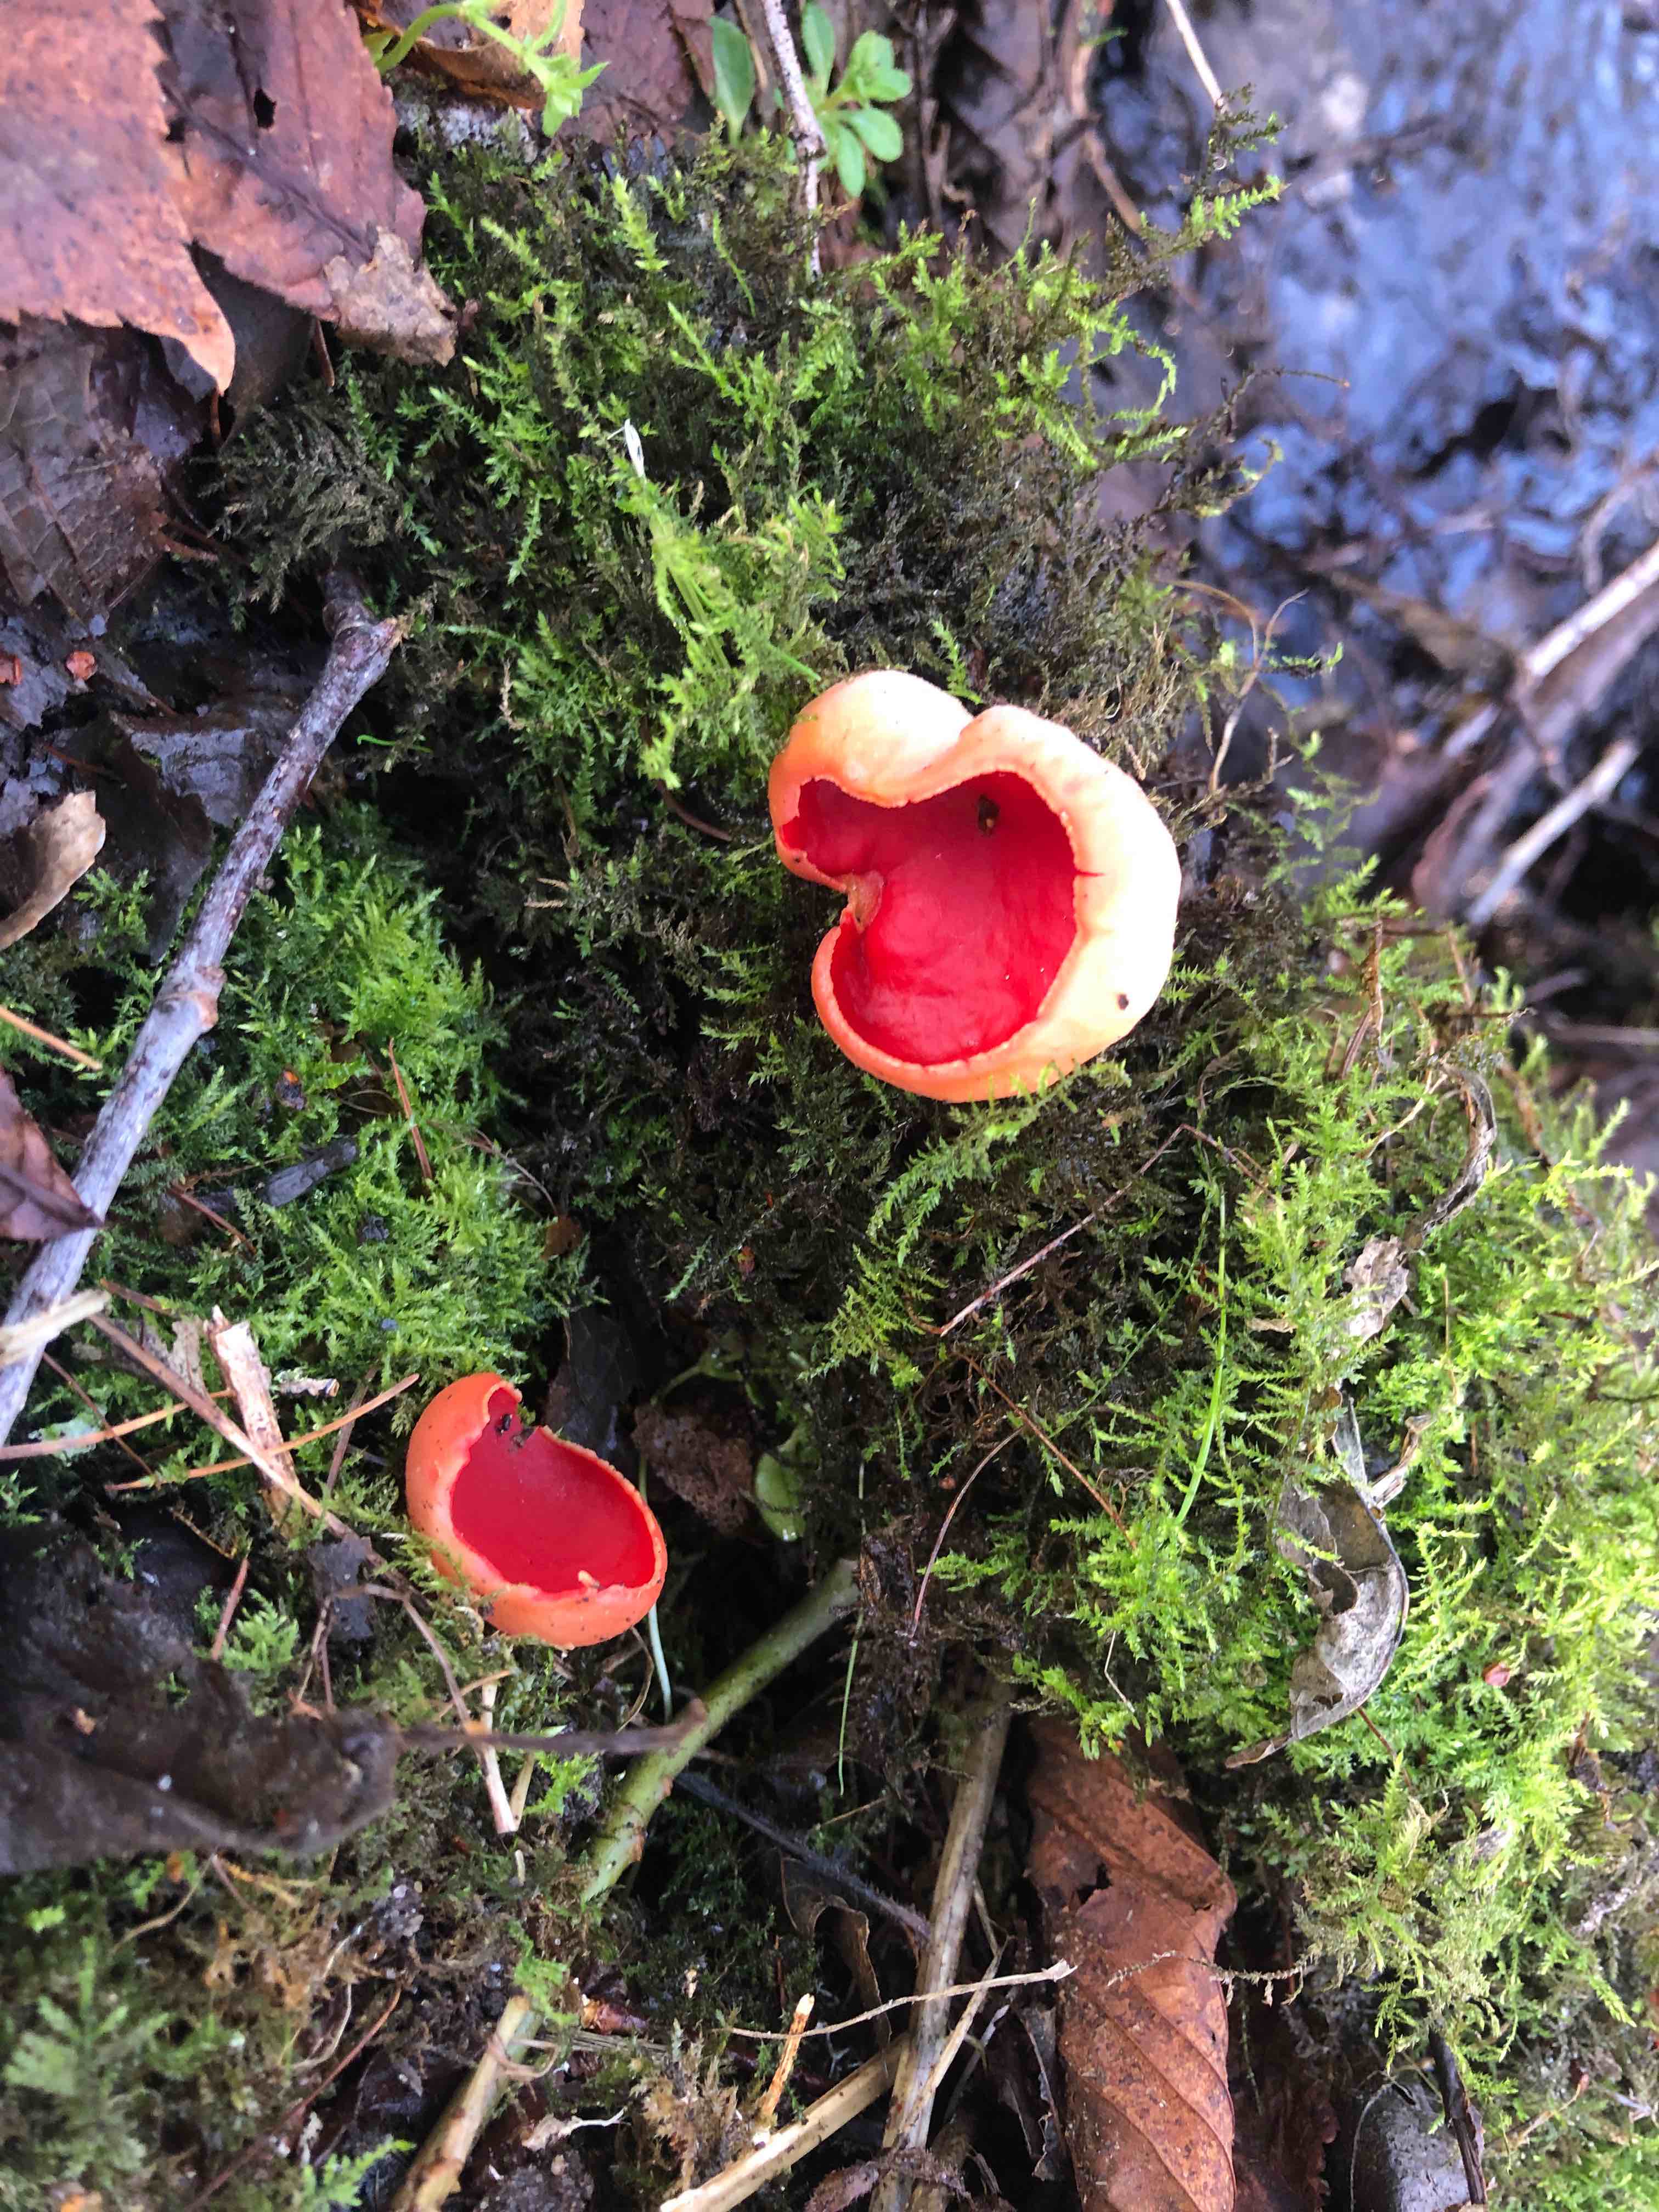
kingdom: Fungi
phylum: Ascomycota
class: Pezizomycetes
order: Pezizales
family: Sarcoscyphaceae
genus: Sarcoscypha
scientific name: Sarcoscypha austriaca
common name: krølhåret pragtbæger
